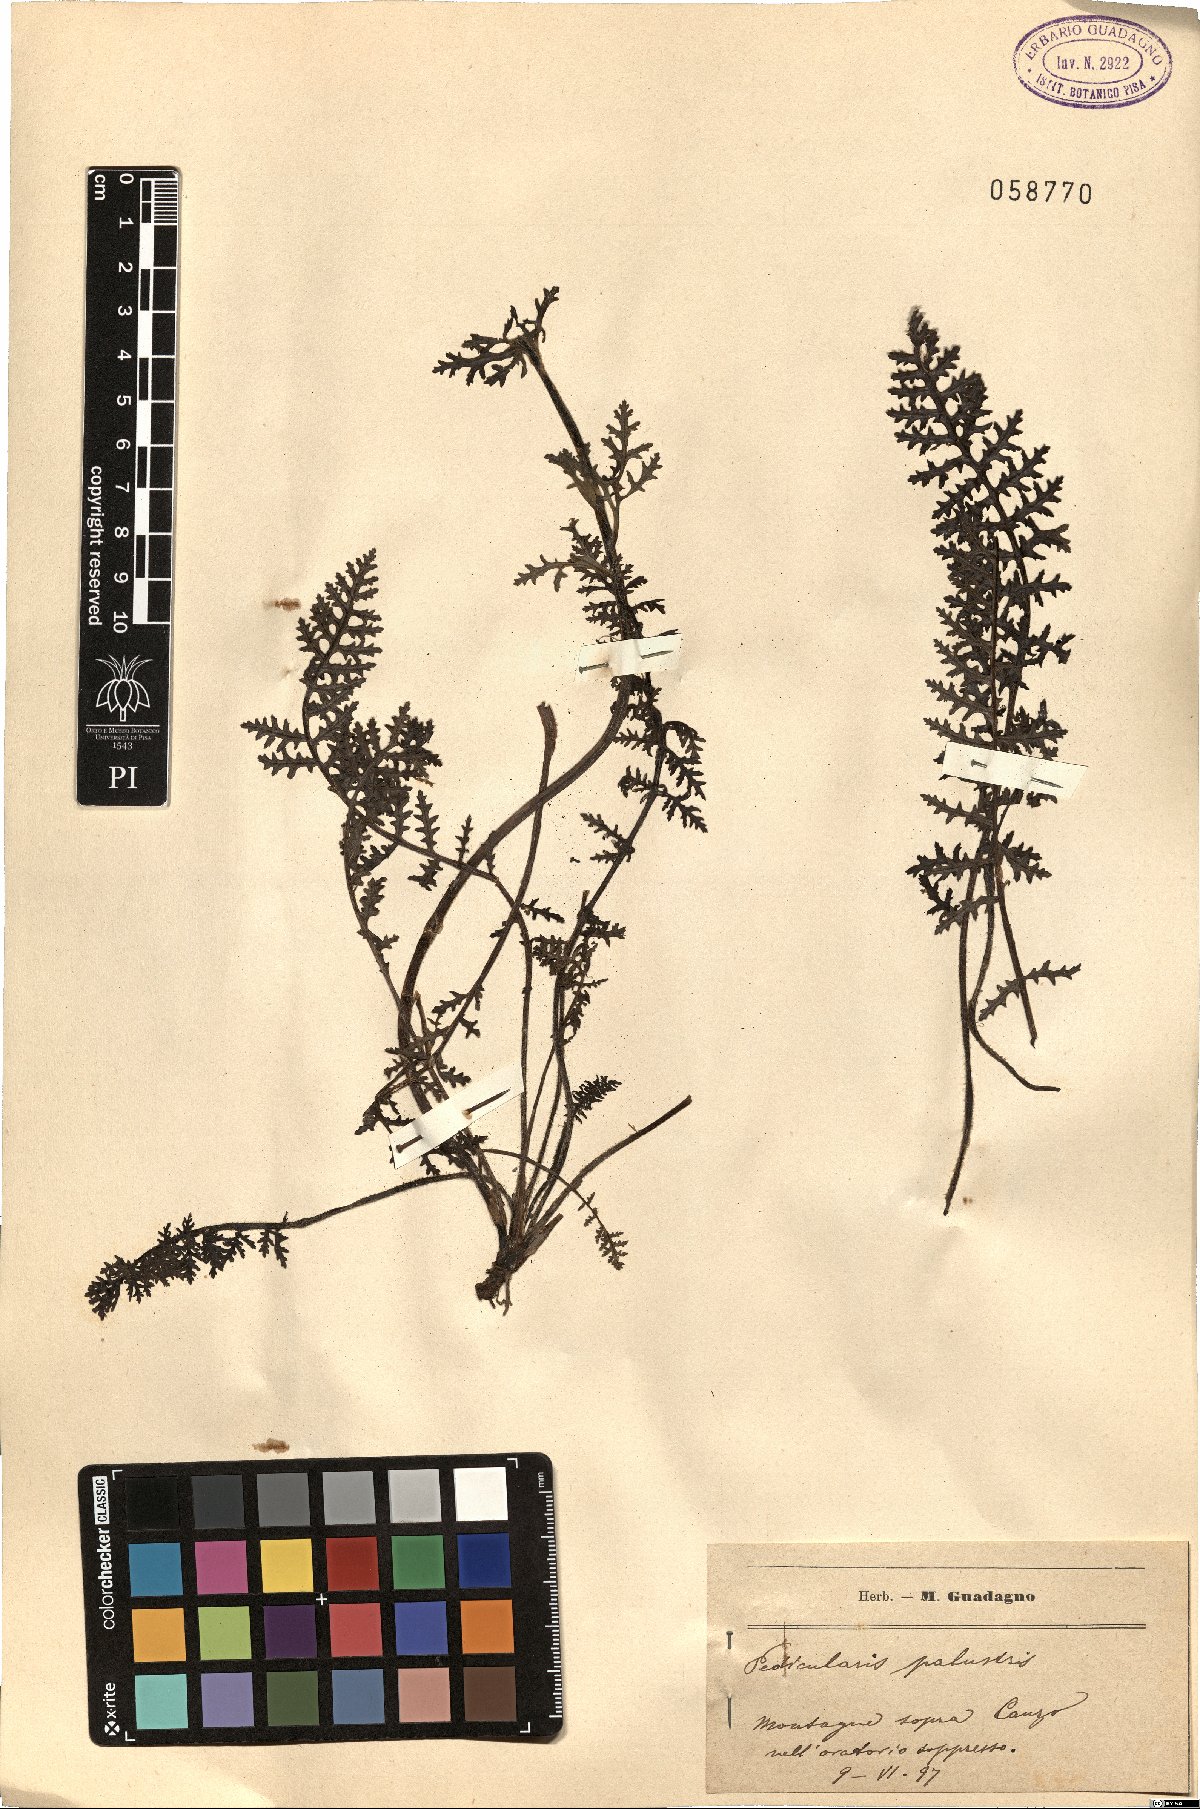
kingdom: Plantae
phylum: Tracheophyta
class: Magnoliopsida
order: Lamiales
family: Orobanchaceae
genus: Pedicularis
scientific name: Pedicularis palustris
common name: Marsh lousewort
